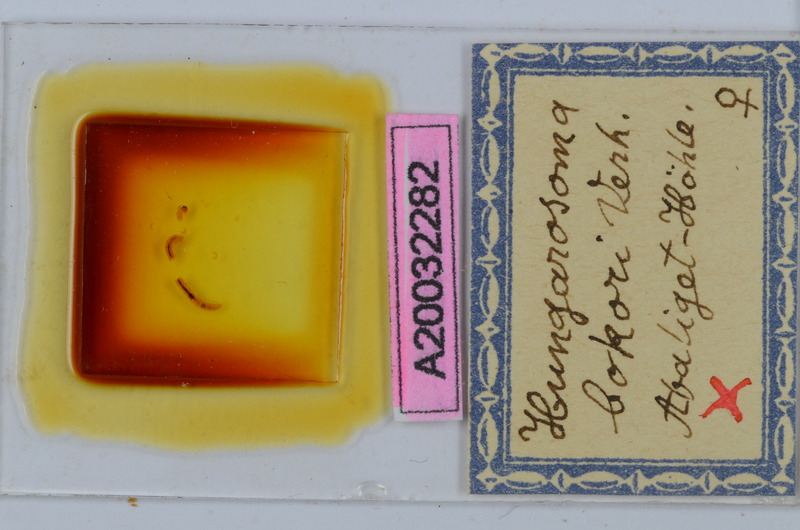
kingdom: Animalia
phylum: Arthropoda
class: Diplopoda
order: Chordeumatida
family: Hungarosomatidae
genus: Hungarosoma
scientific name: Hungarosoma bokori
